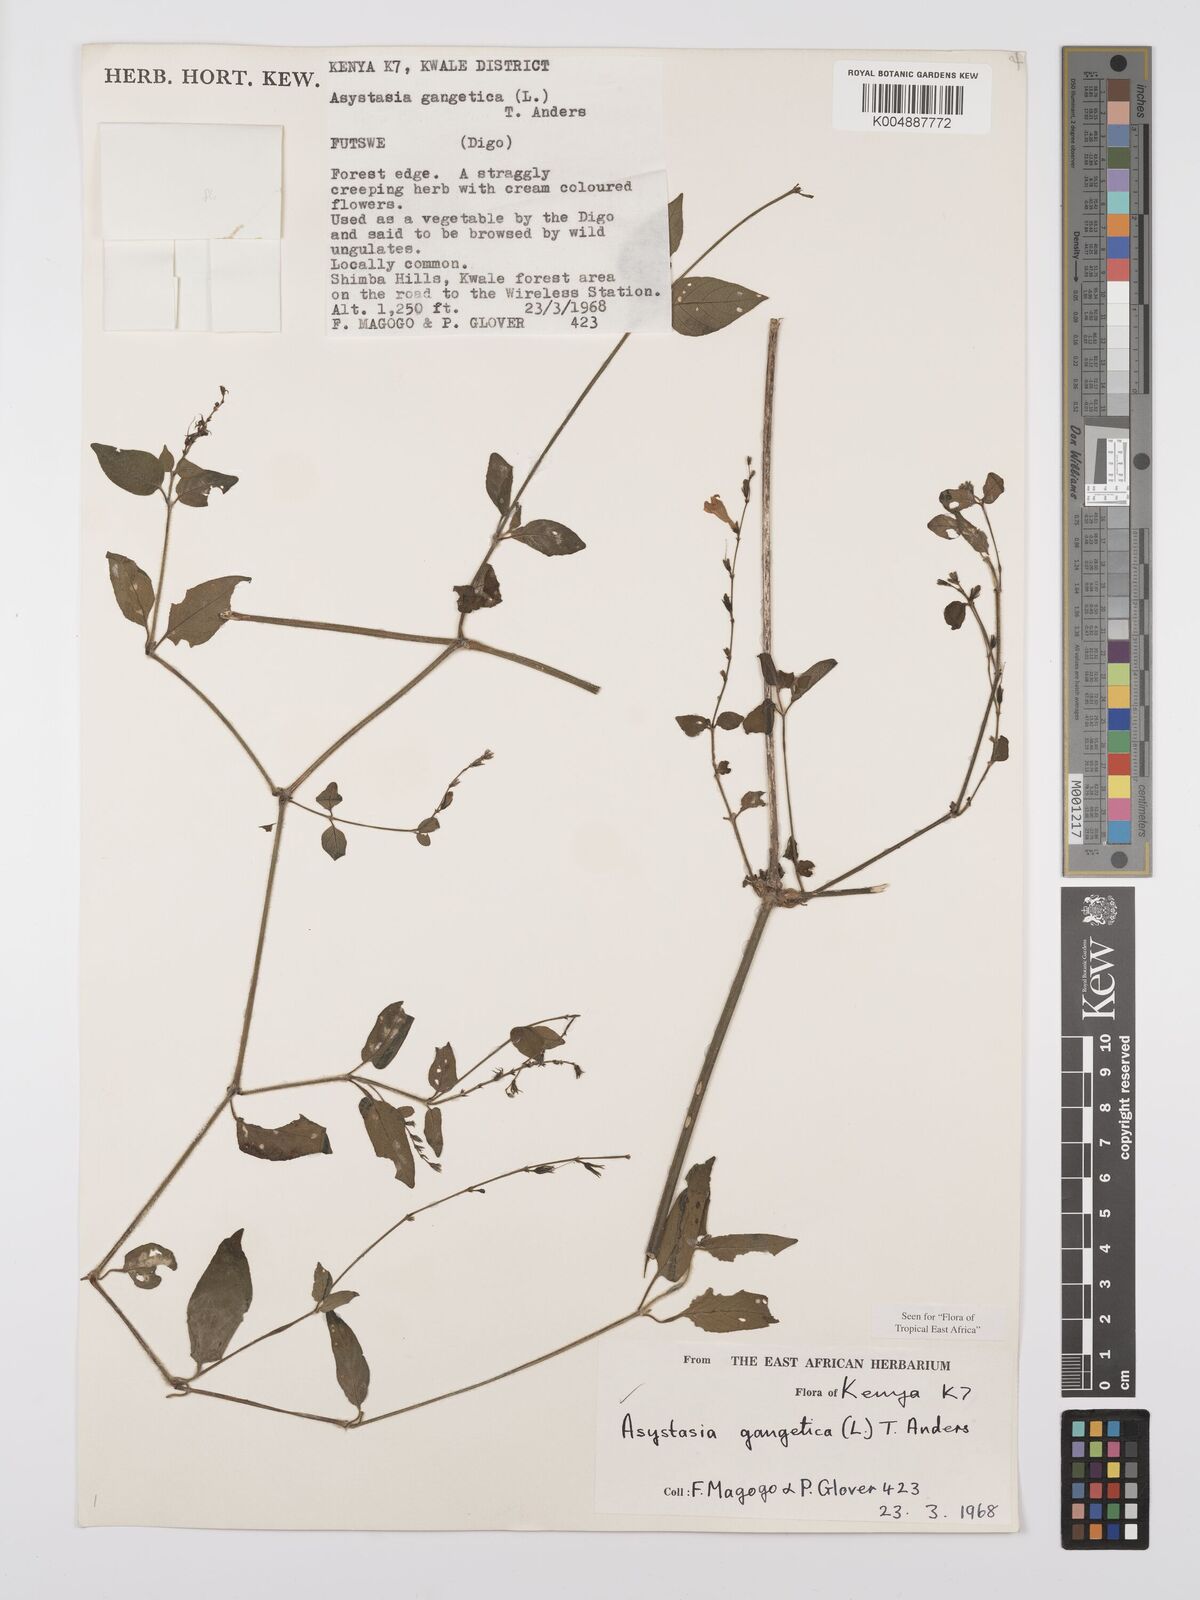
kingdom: Plantae
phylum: Tracheophyta
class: Magnoliopsida
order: Lamiales
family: Acanthaceae
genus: Asystasia
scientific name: Asystasia gangetica
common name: Chinese violet
